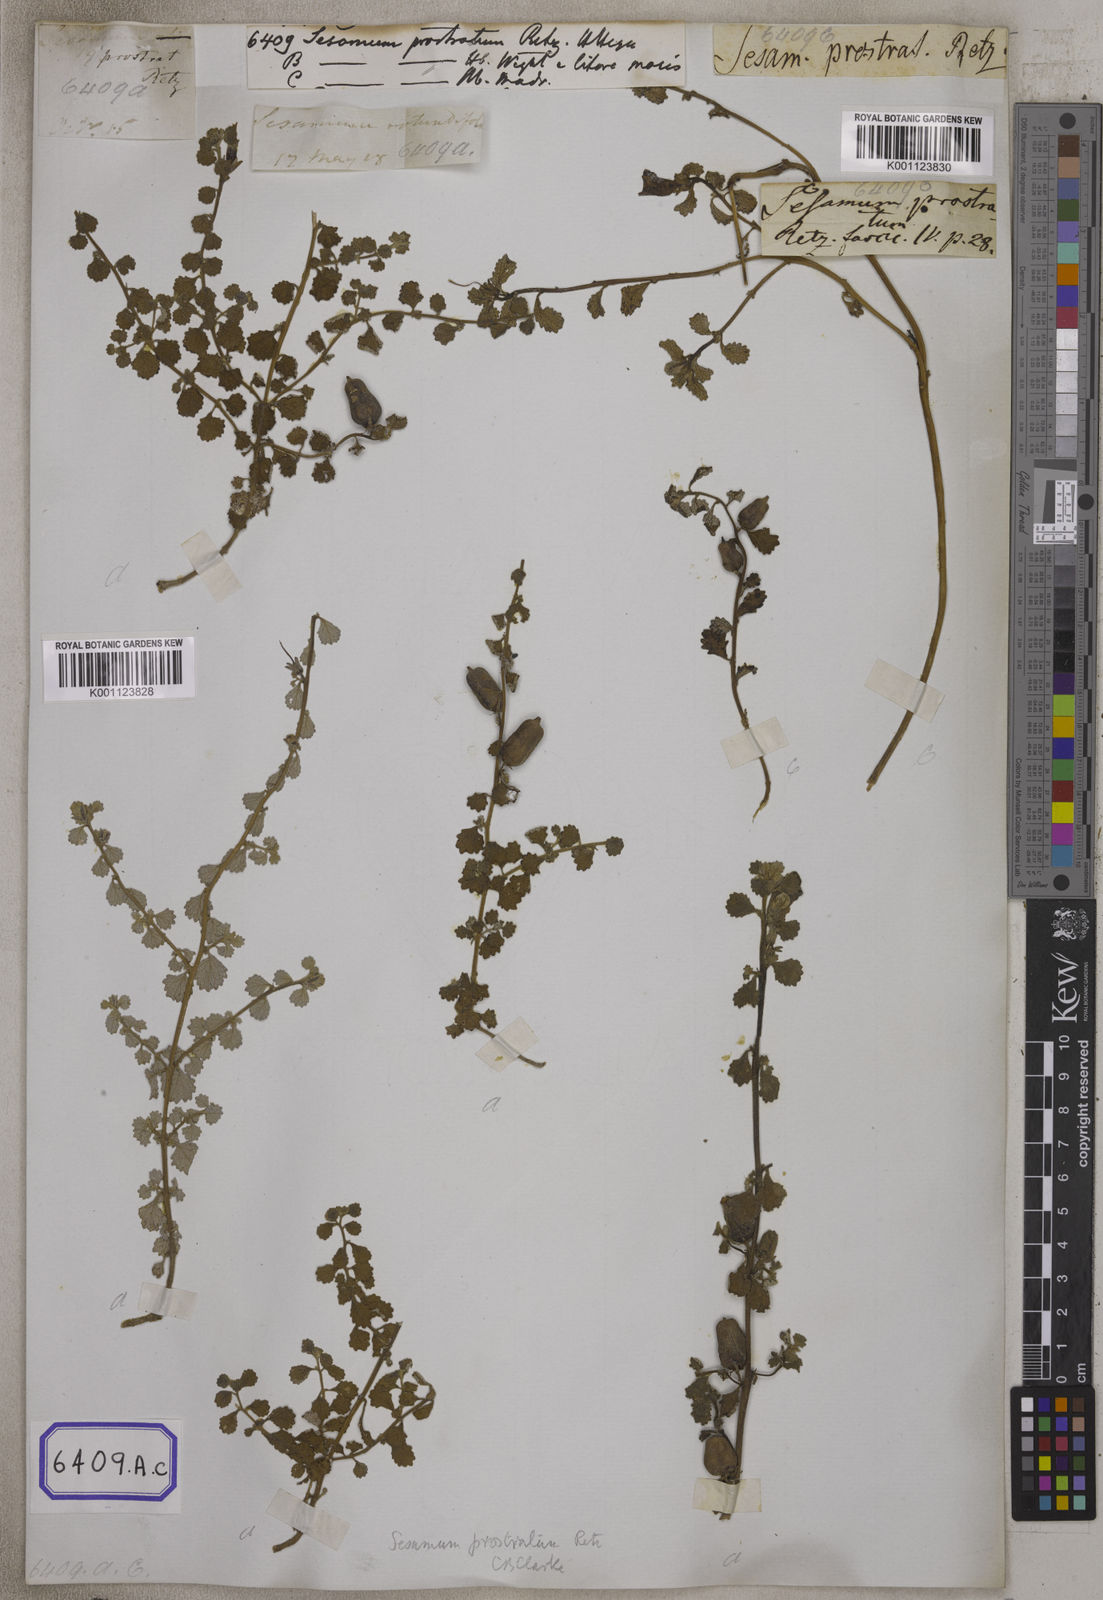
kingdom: Plantae
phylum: Tracheophyta
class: Magnoliopsida
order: Lamiales
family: Pedaliaceae
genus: Sesamum
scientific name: Sesamum prostratum
